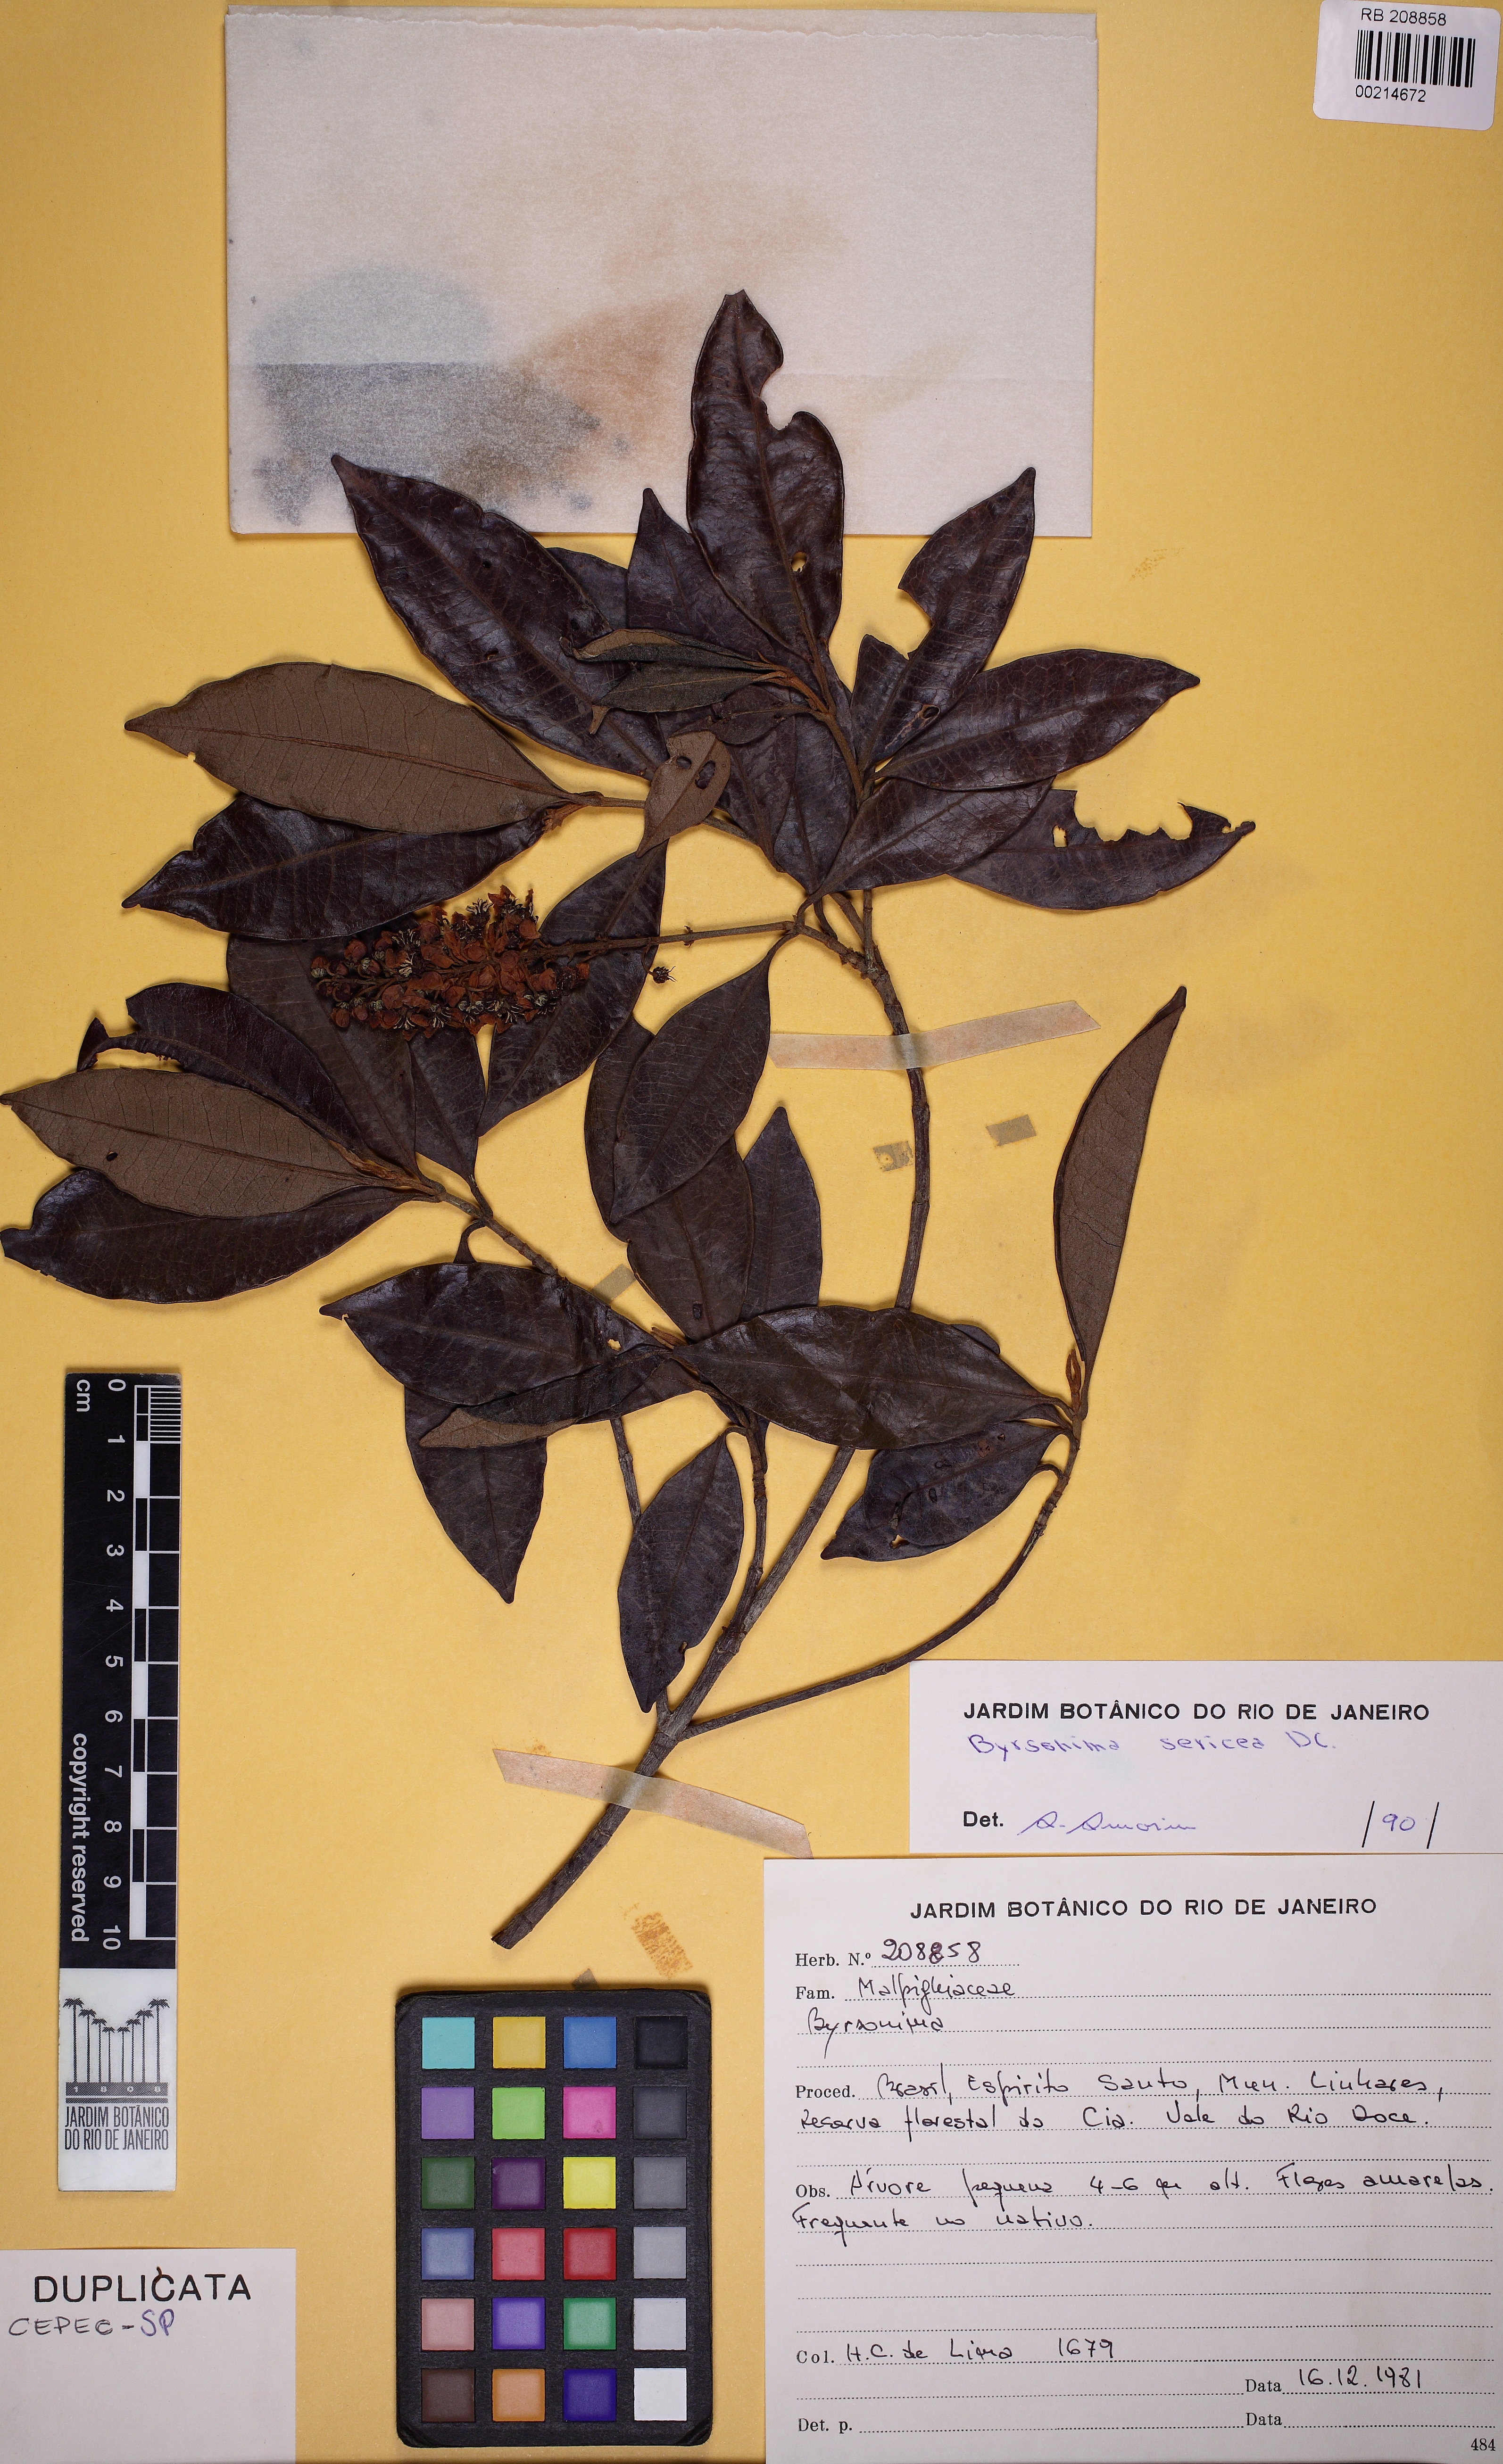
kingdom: Plantae
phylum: Tracheophyta
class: Magnoliopsida
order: Malpighiales
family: Malpighiaceae
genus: Byrsonima
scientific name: Byrsonima sericea
